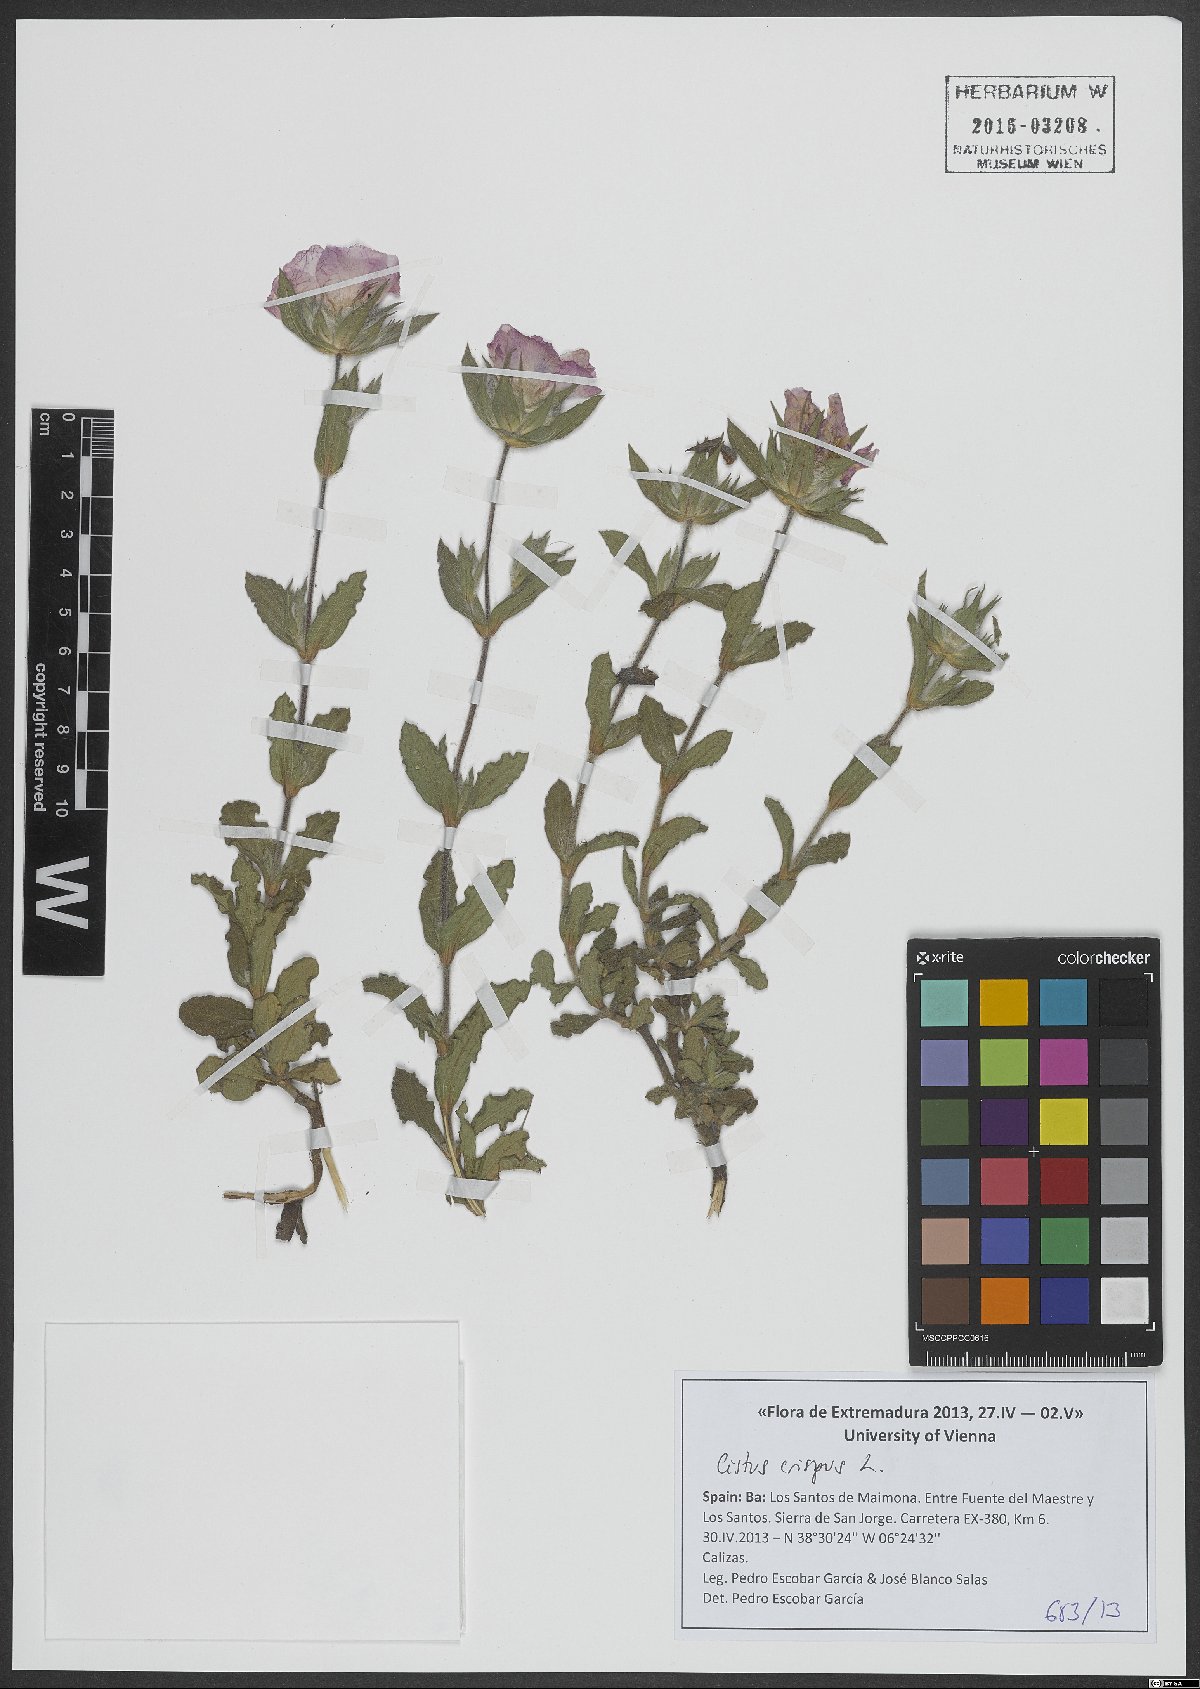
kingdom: Plantae
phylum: Tracheophyta
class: Magnoliopsida
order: Malvales
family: Cistaceae
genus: Cistus
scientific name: Cistus crispus
